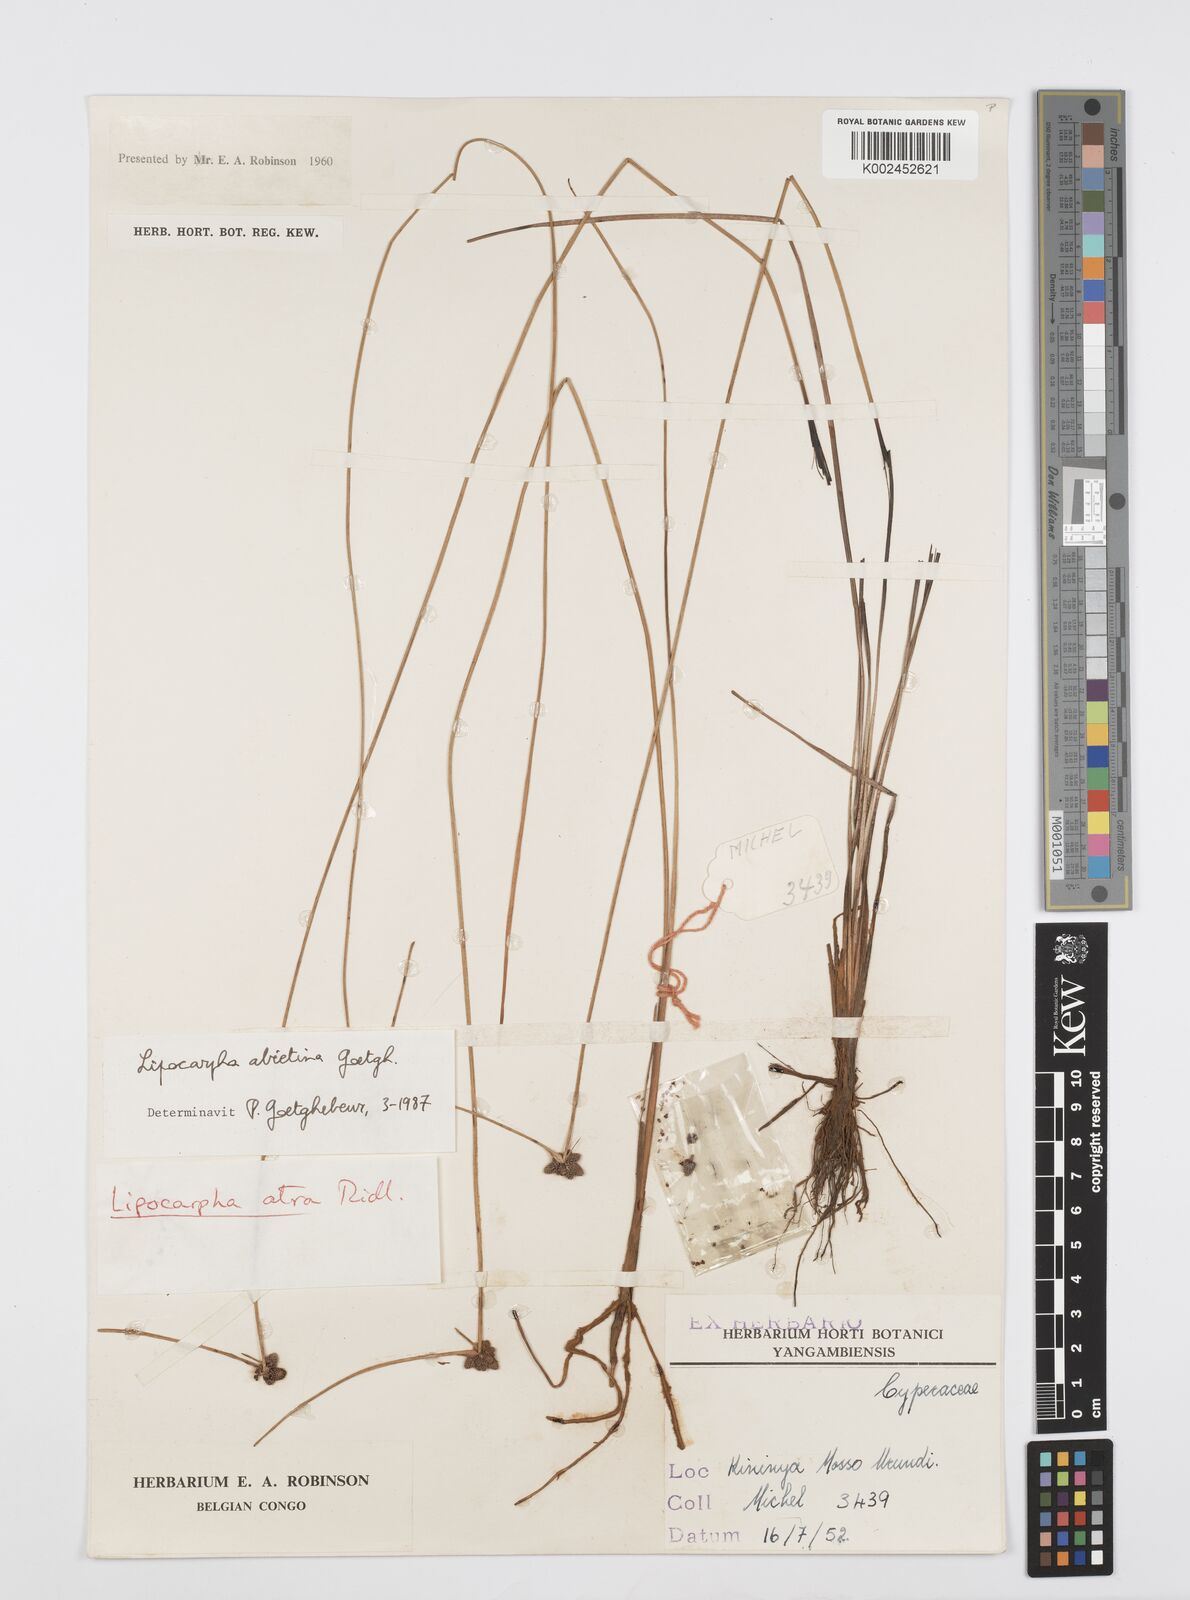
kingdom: Plantae
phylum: Tracheophyta
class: Liliopsida
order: Poales
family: Cyperaceae
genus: Cyperus
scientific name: Cyperus lipoater
